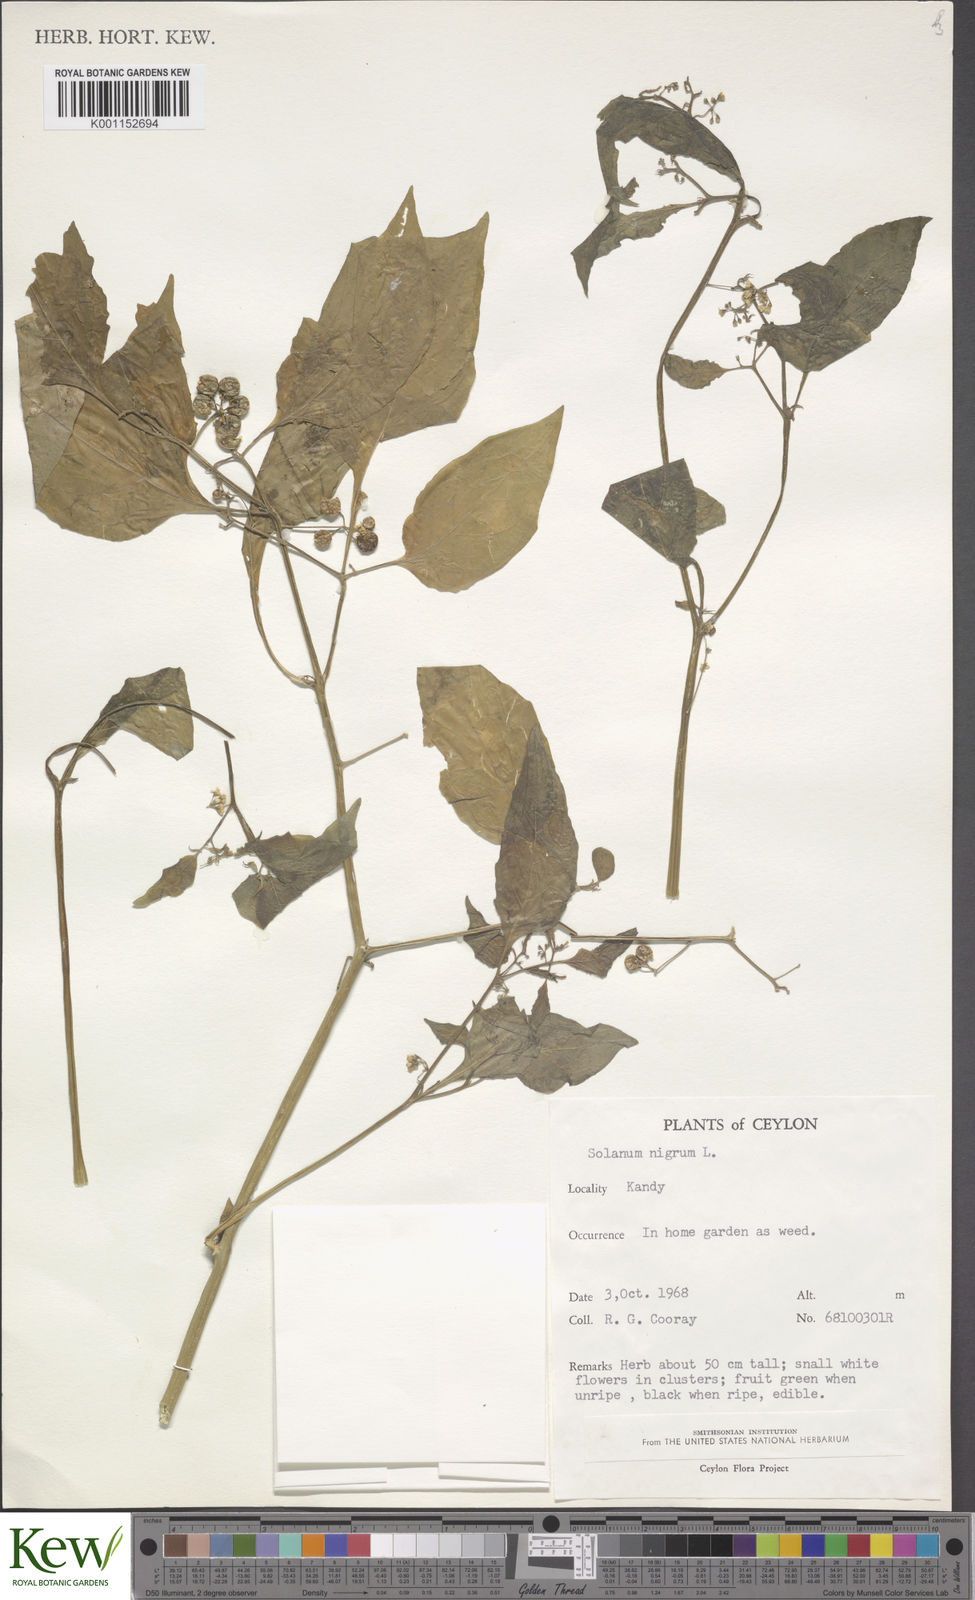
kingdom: Plantae
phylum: Tracheophyta
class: Magnoliopsida
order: Solanales
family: Solanaceae
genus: Solanum
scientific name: Solanum nigrum
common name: Black nightshade
